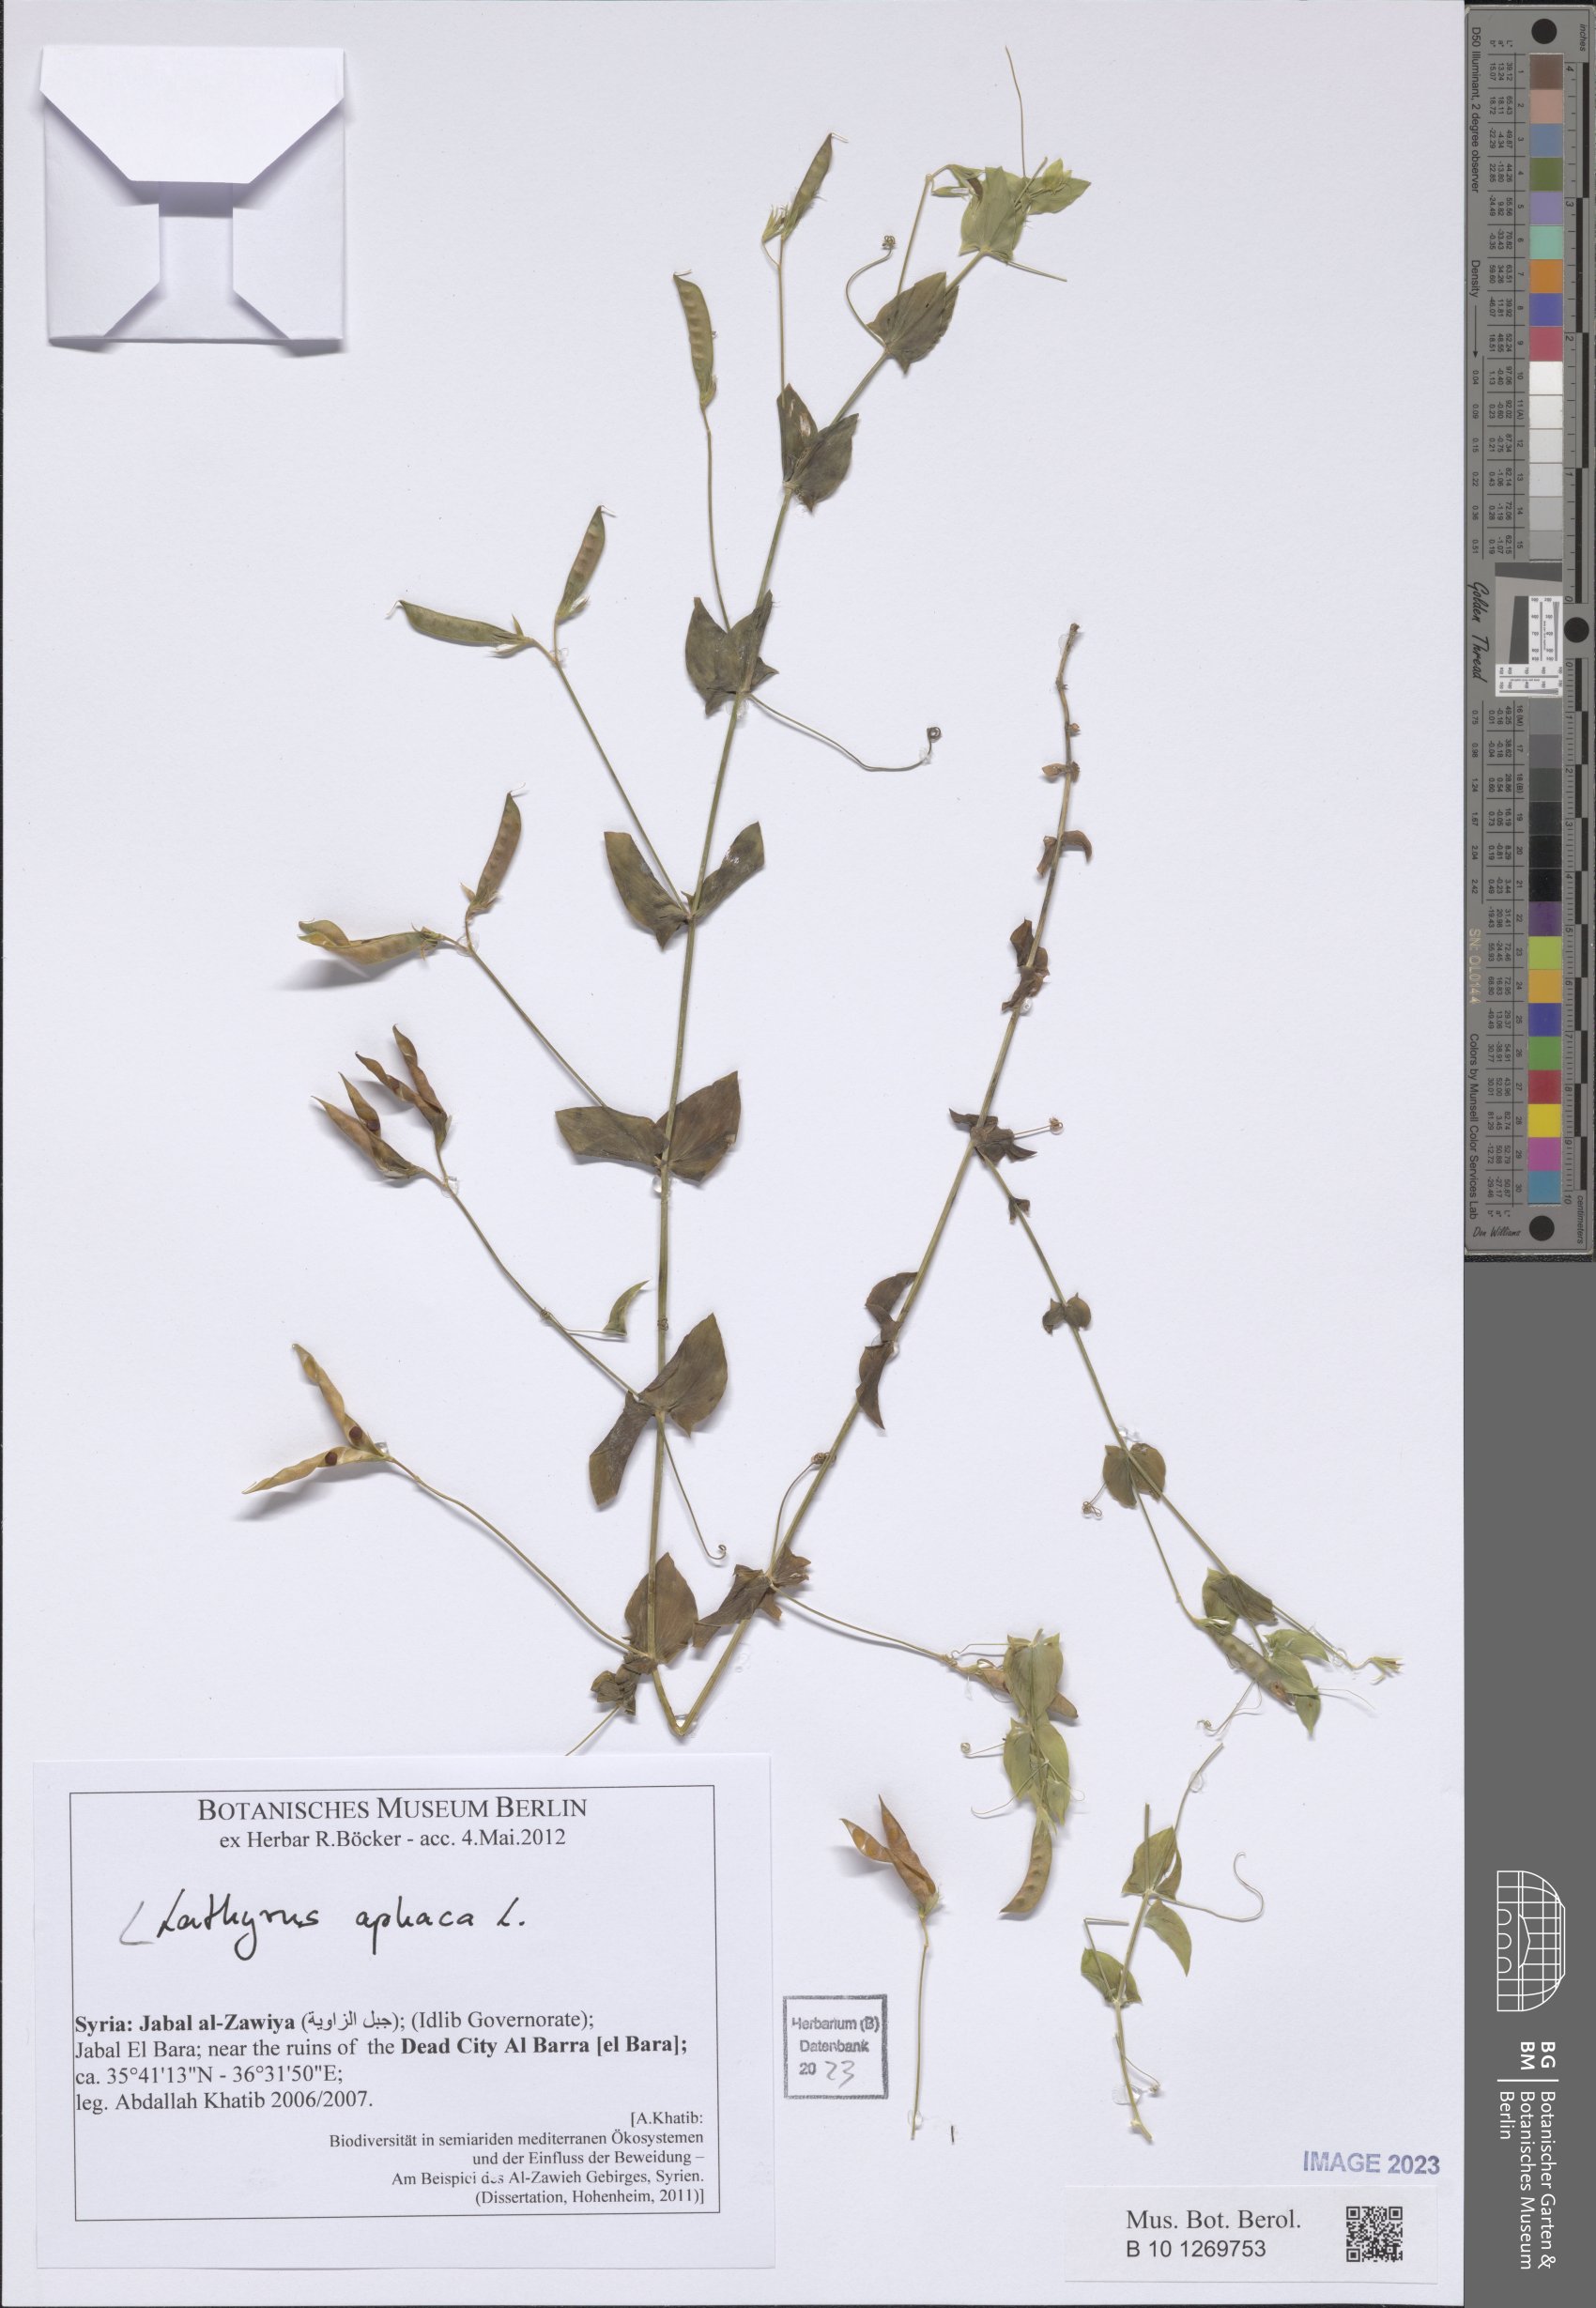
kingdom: Plantae
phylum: Tracheophyta
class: Magnoliopsida
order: Fabales
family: Fabaceae
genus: Lathyrus
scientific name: Lathyrus aphaca
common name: Yellow vetchling
